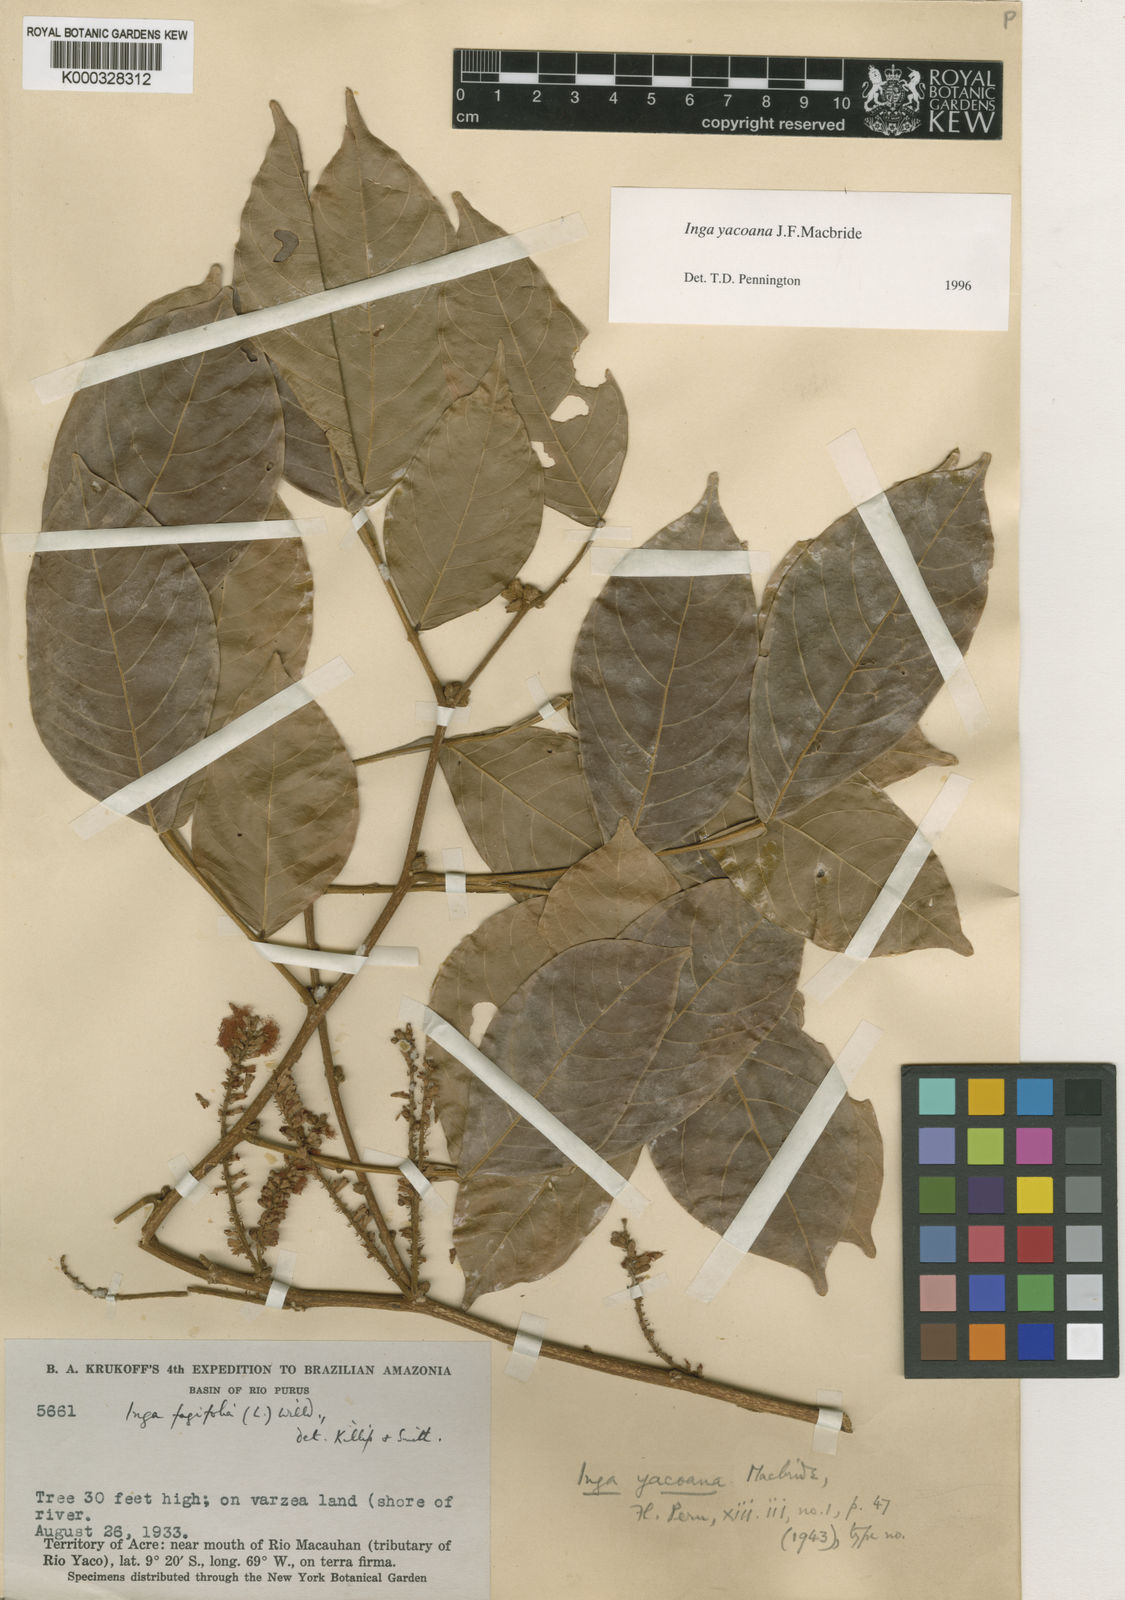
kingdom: Plantae
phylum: Tracheophyta
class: Magnoliopsida
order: Fabales
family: Fabaceae
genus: Inga
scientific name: Inga yacoana
